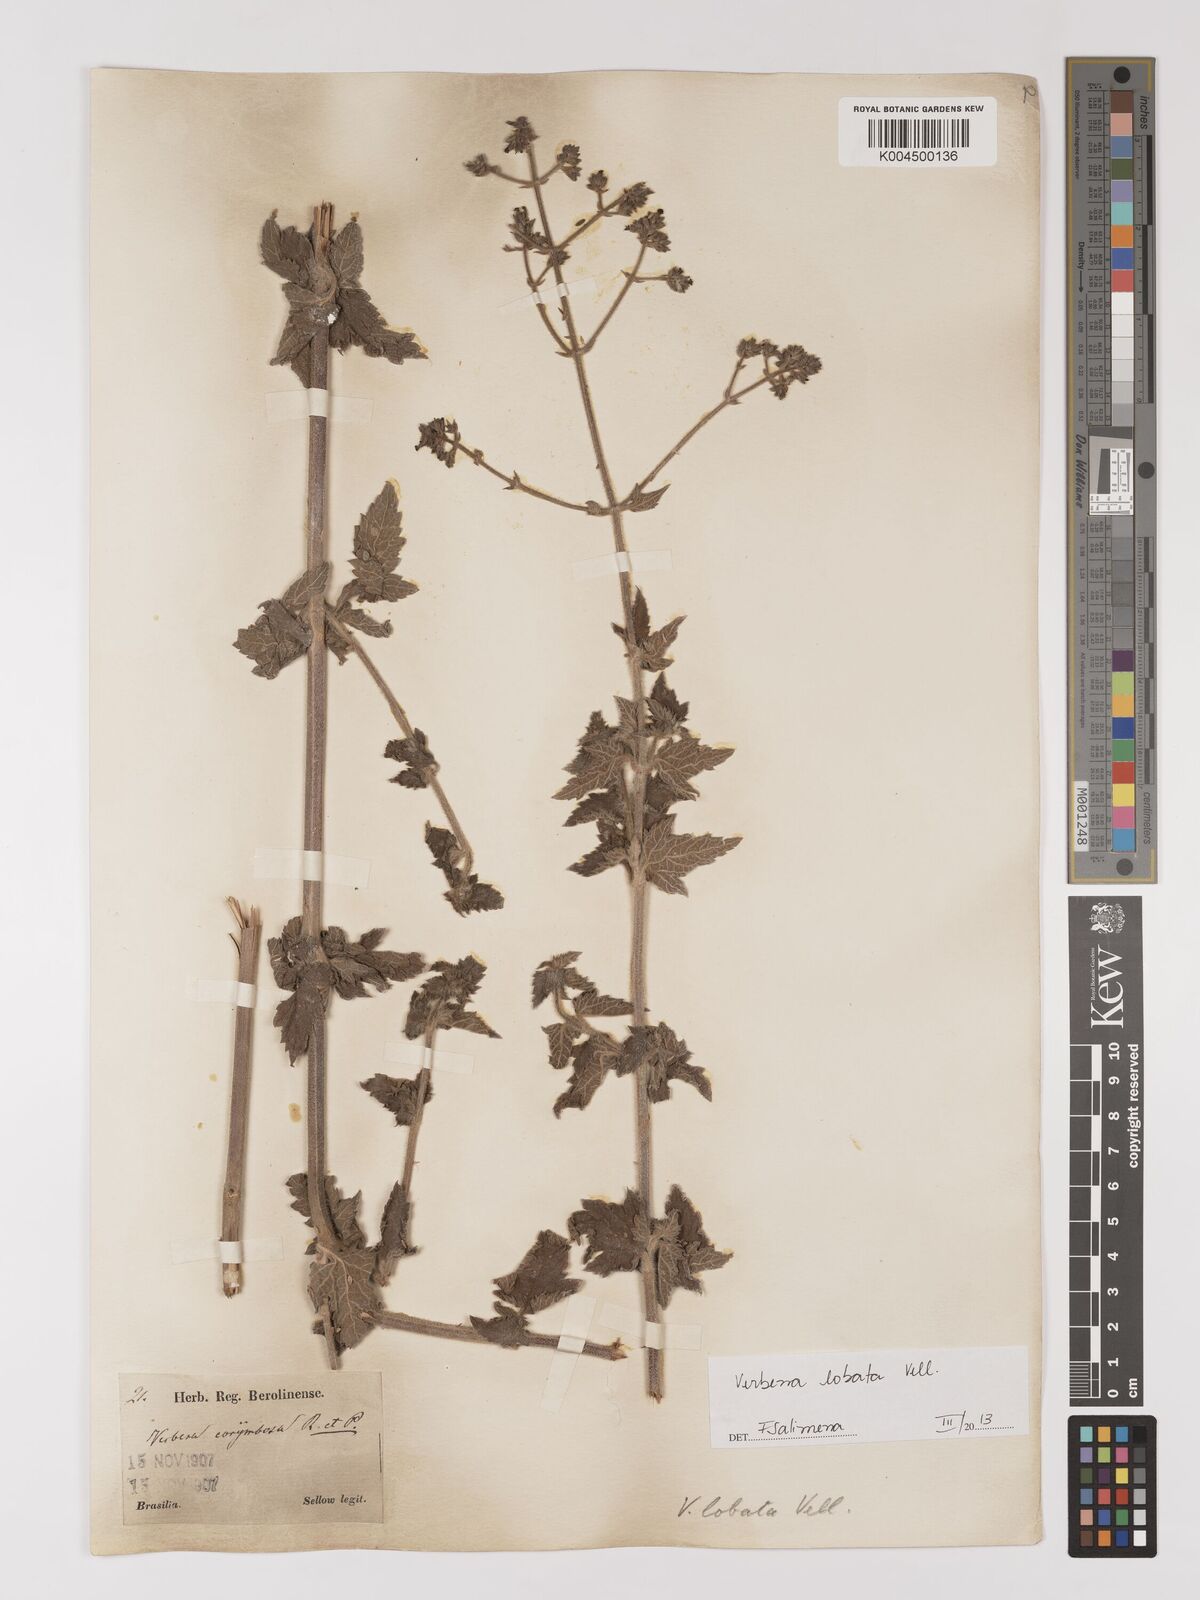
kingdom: Plantae
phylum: Tracheophyta
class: Magnoliopsida
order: Lamiales
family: Verbenaceae
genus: Verbena
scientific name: Verbena lobata
